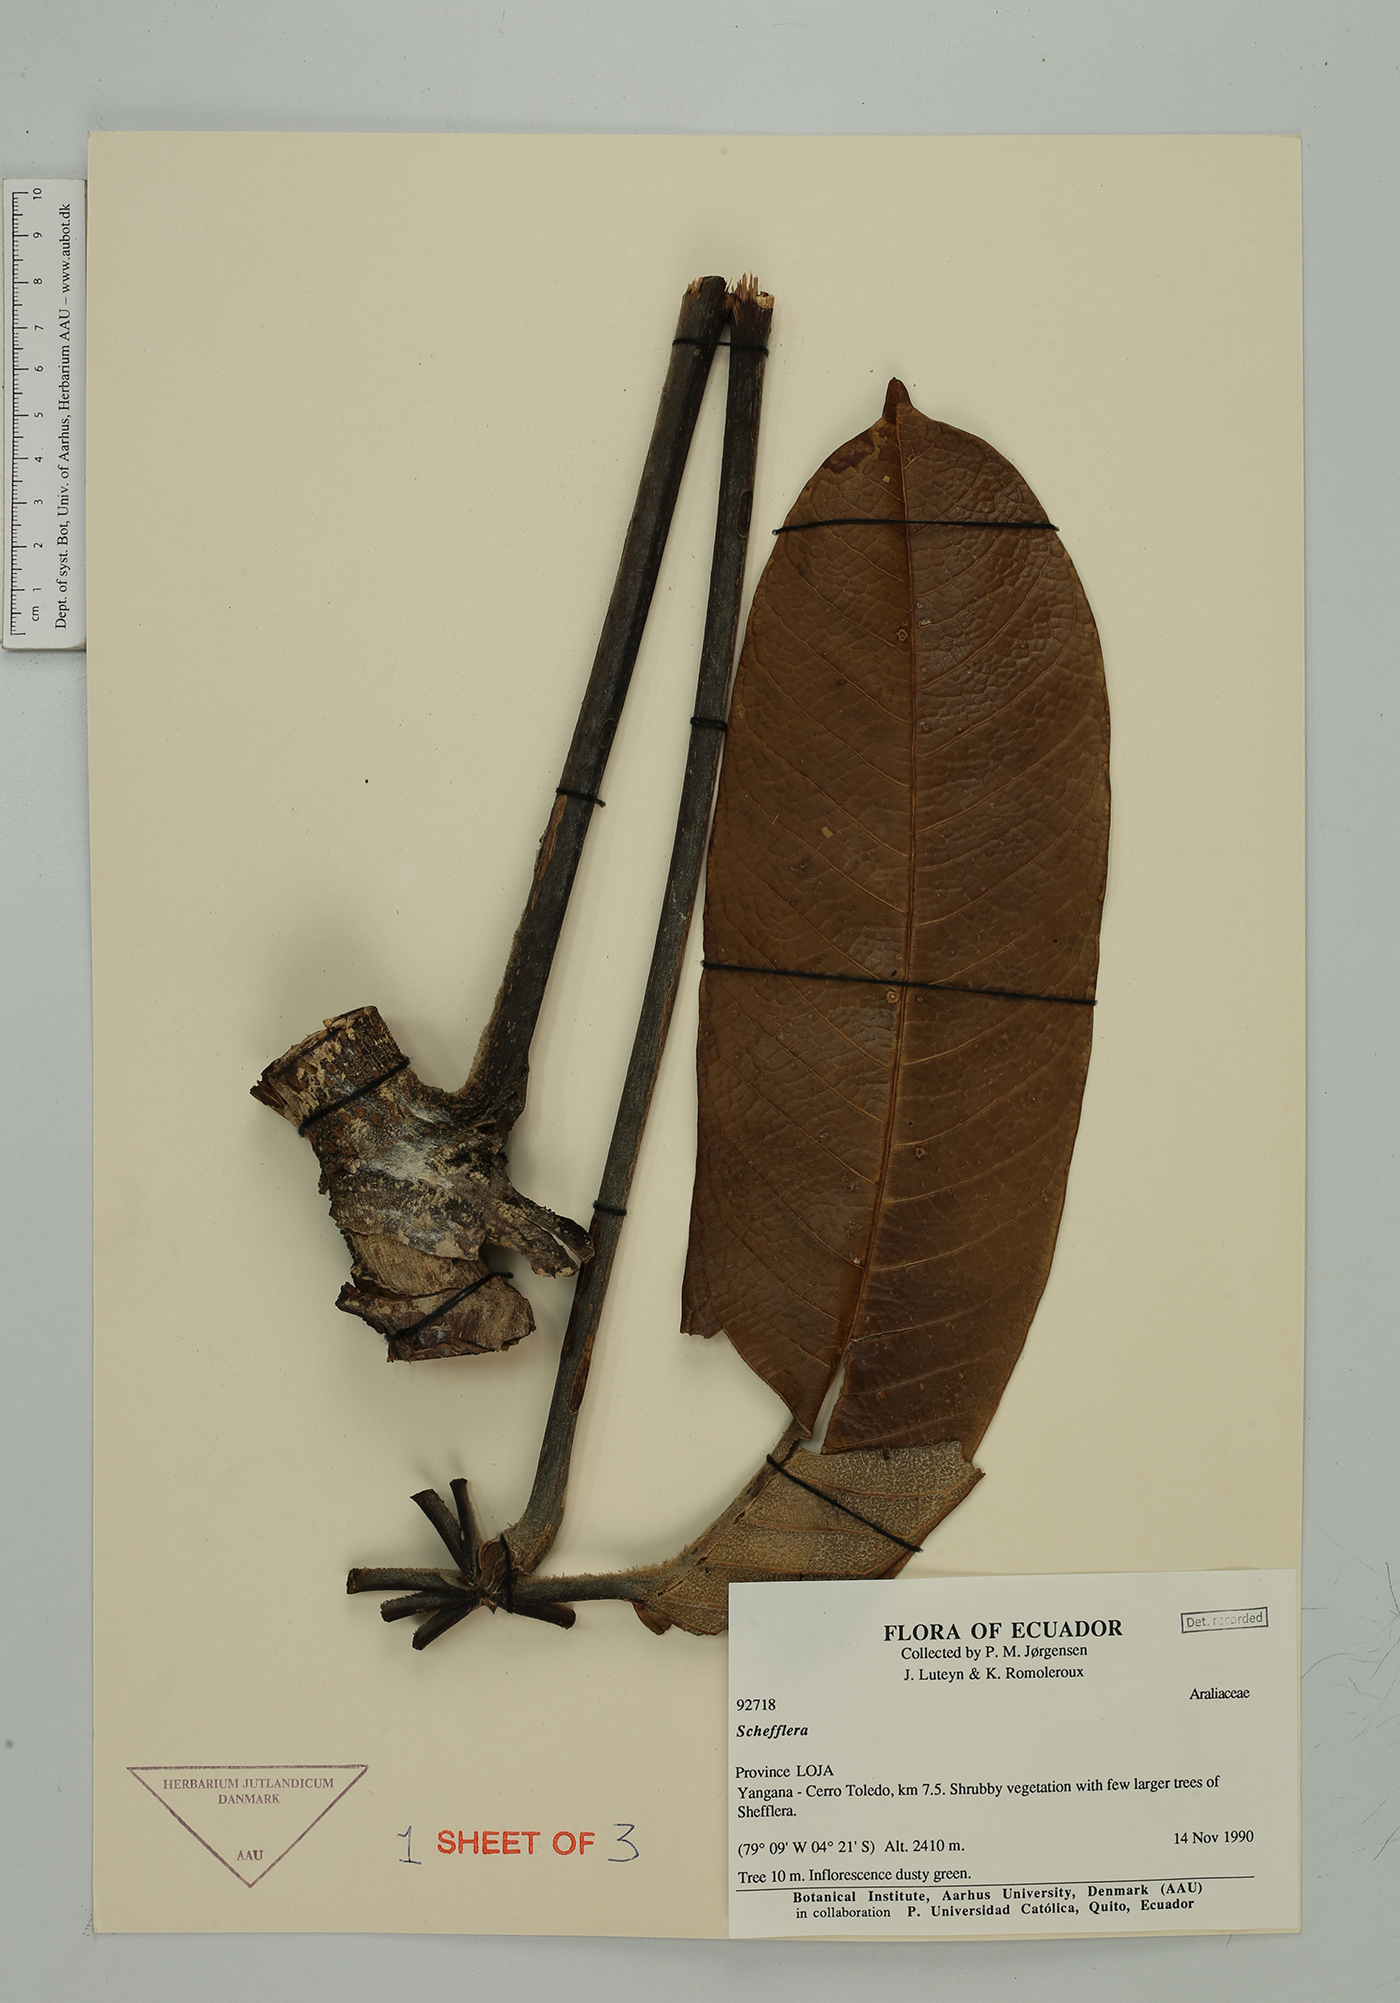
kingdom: Plantae
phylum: Tracheophyta
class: Magnoliopsida
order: Apiales
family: Araliaceae
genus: Sciodaphyllum
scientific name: Sciodaphyllum
